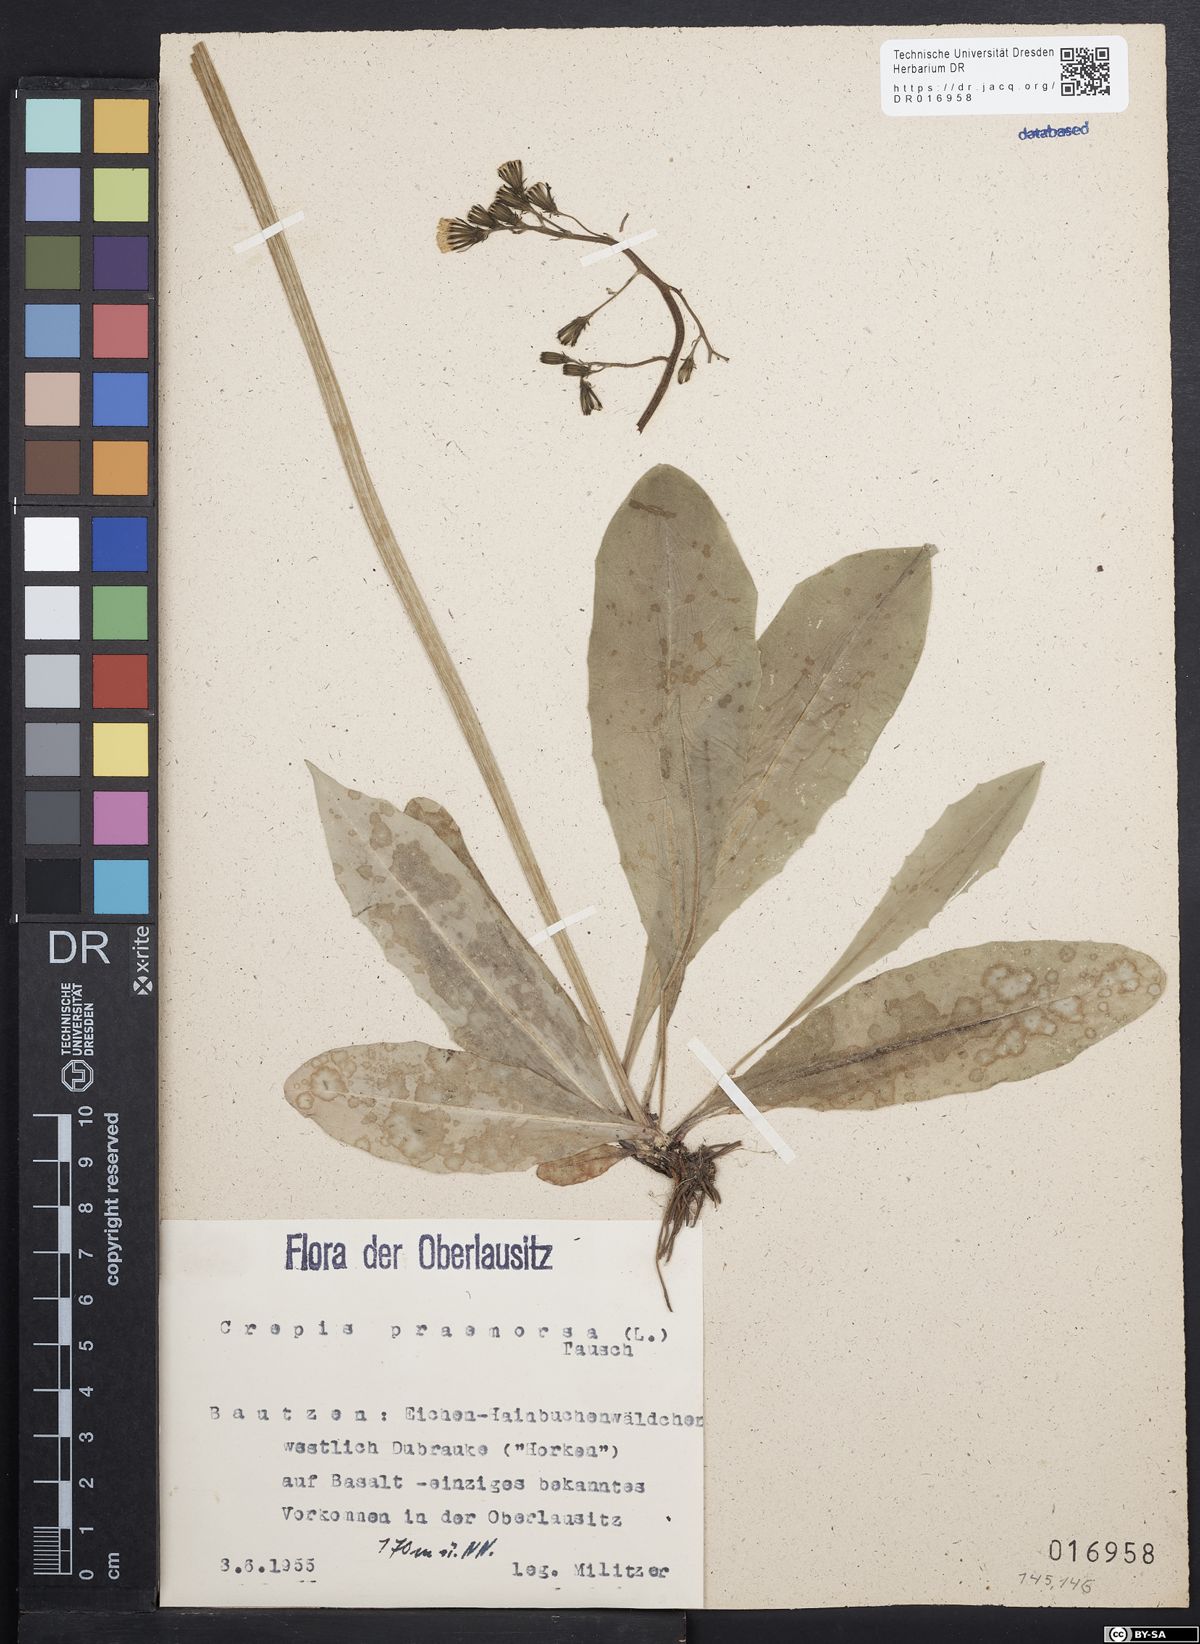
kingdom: Plantae
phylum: Tracheophyta
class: Magnoliopsida
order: Asterales
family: Asteraceae
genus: Crepis
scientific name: Crepis praemorsa
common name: Leafless hawk's-beard
